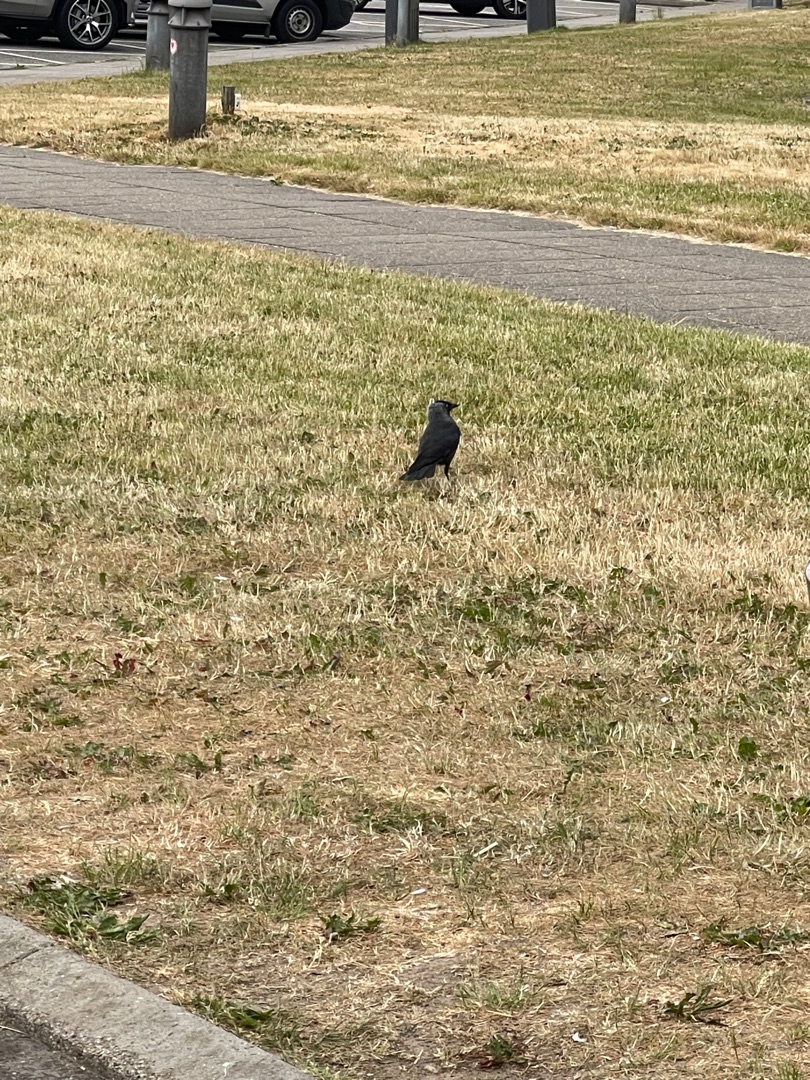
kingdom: Animalia
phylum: Chordata
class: Aves
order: Passeriformes
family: Corvidae
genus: Coloeus
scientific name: Coloeus monedula
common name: Allike
